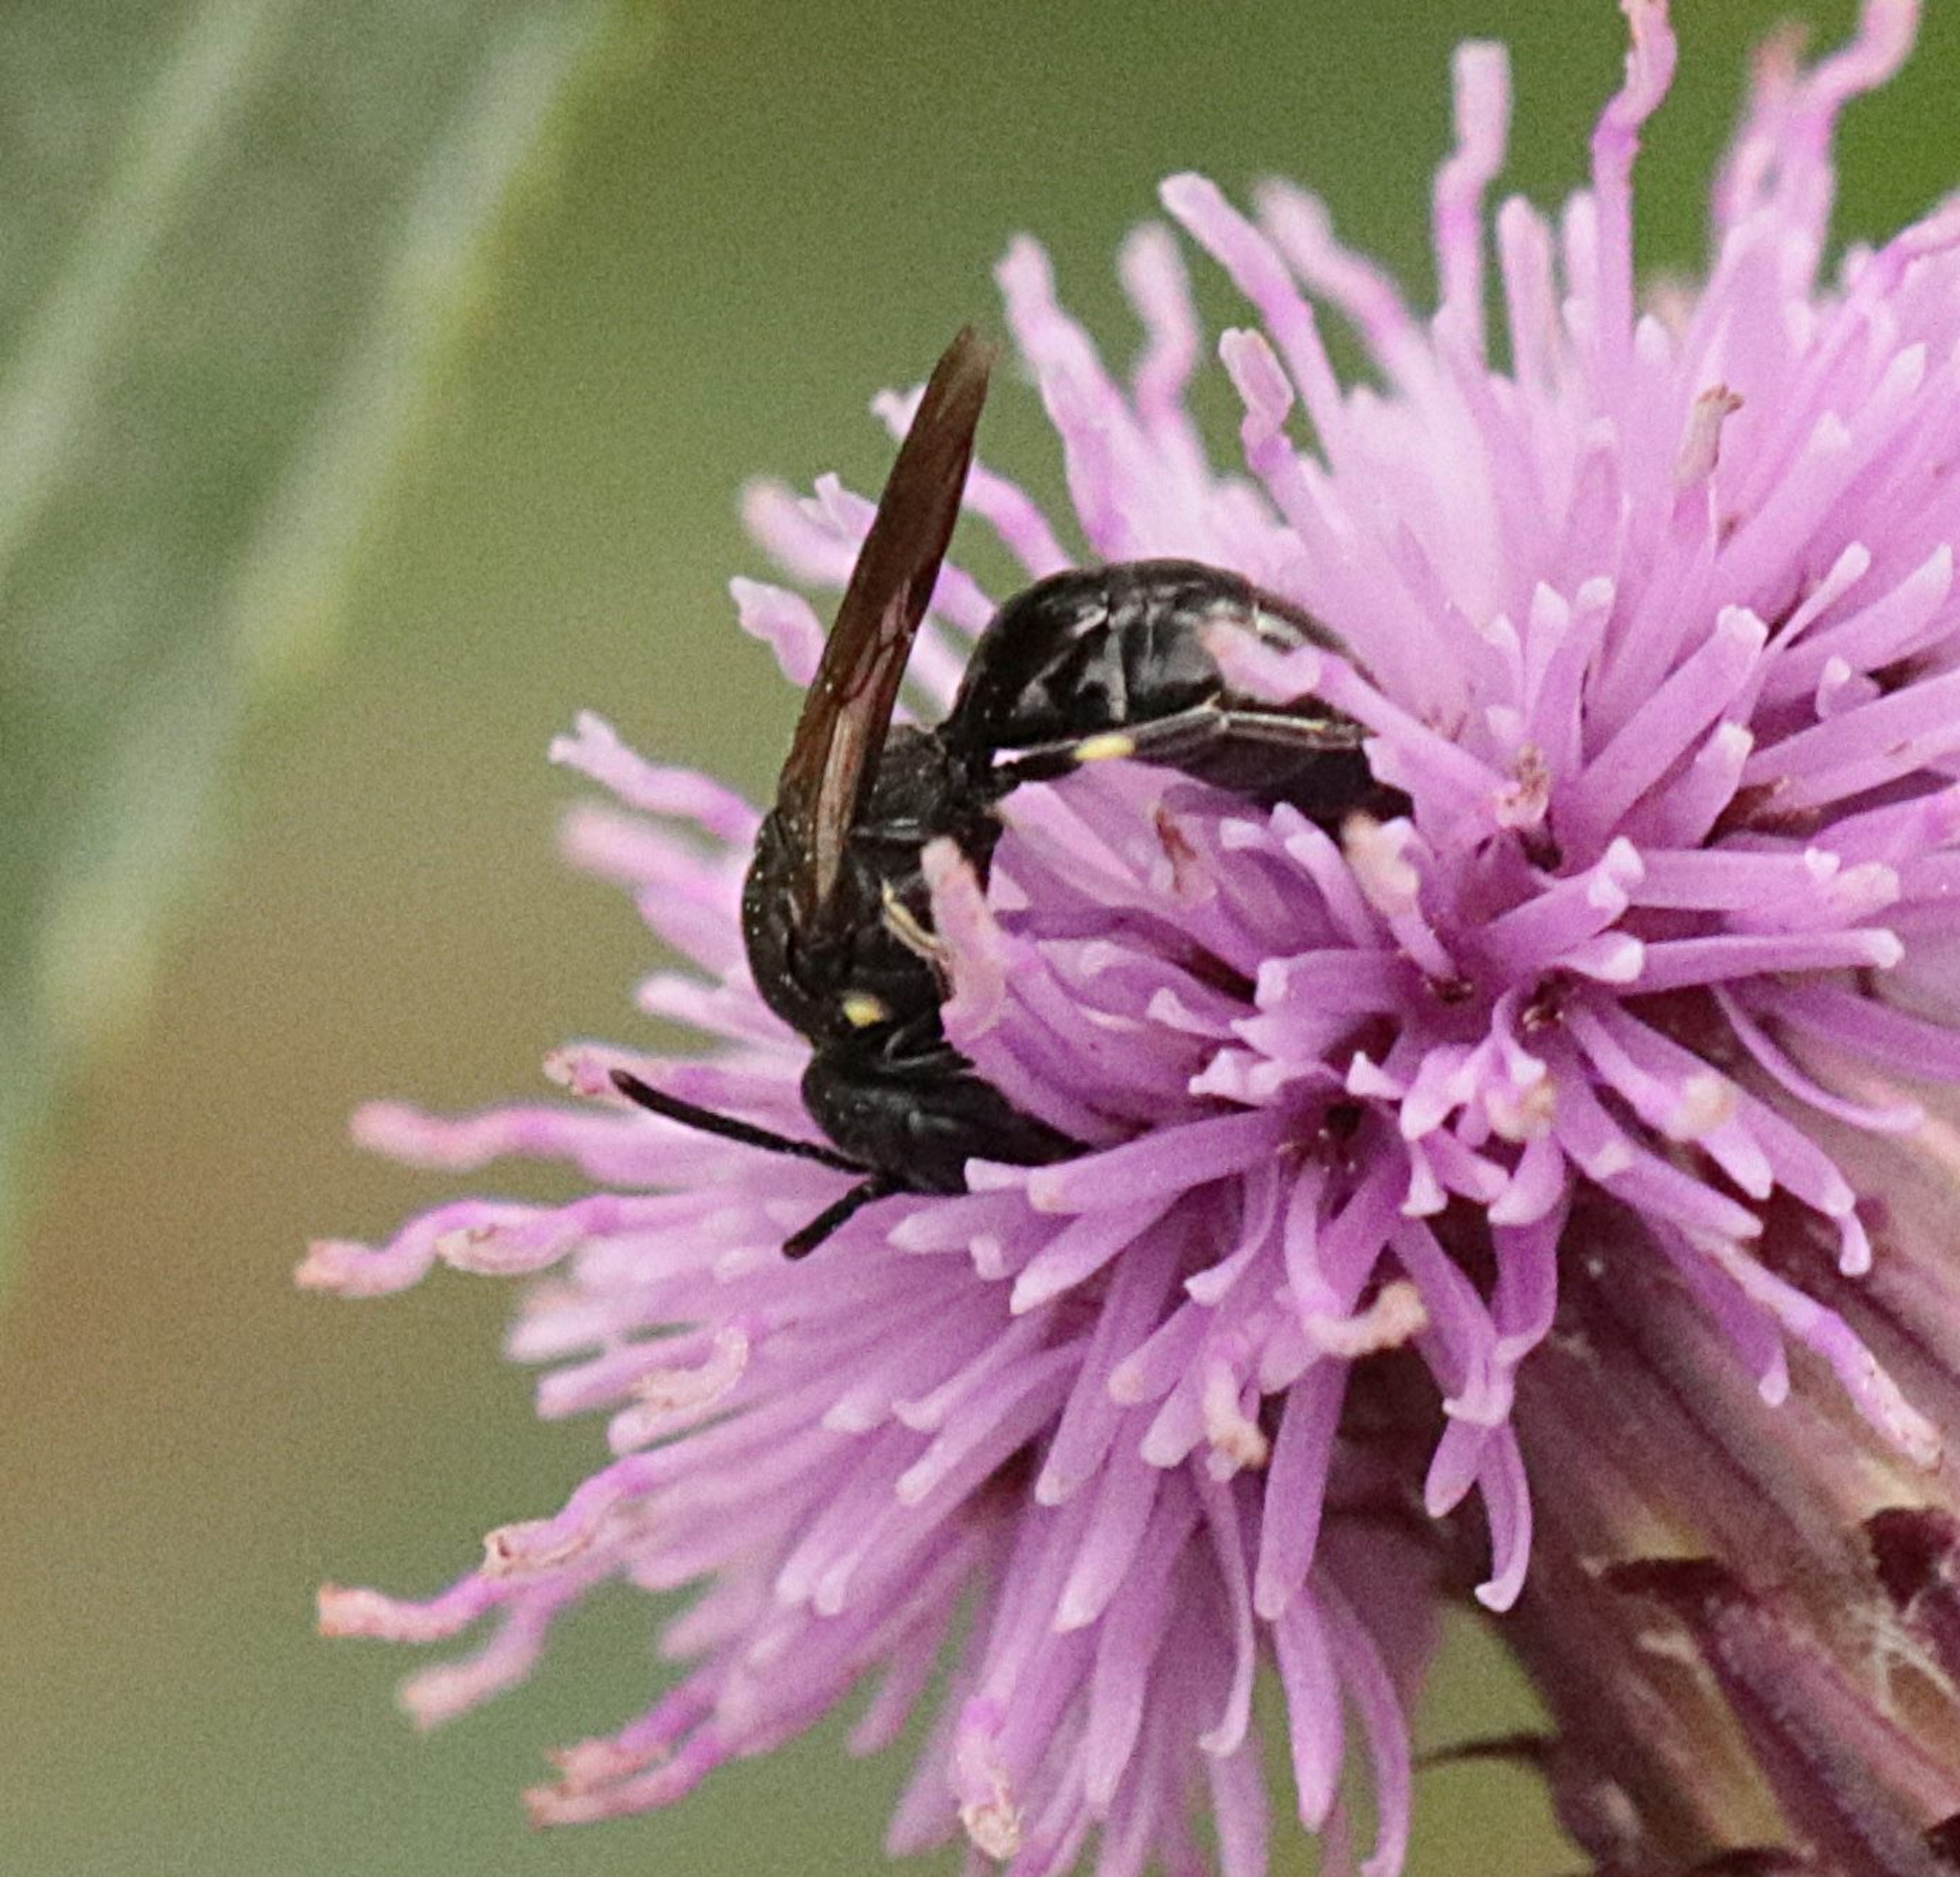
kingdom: Animalia
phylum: Arthropoda
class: Insecta
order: Hymenoptera
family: Colletidae
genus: Hylaeus
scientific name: Hylaeus
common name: Maskebier
